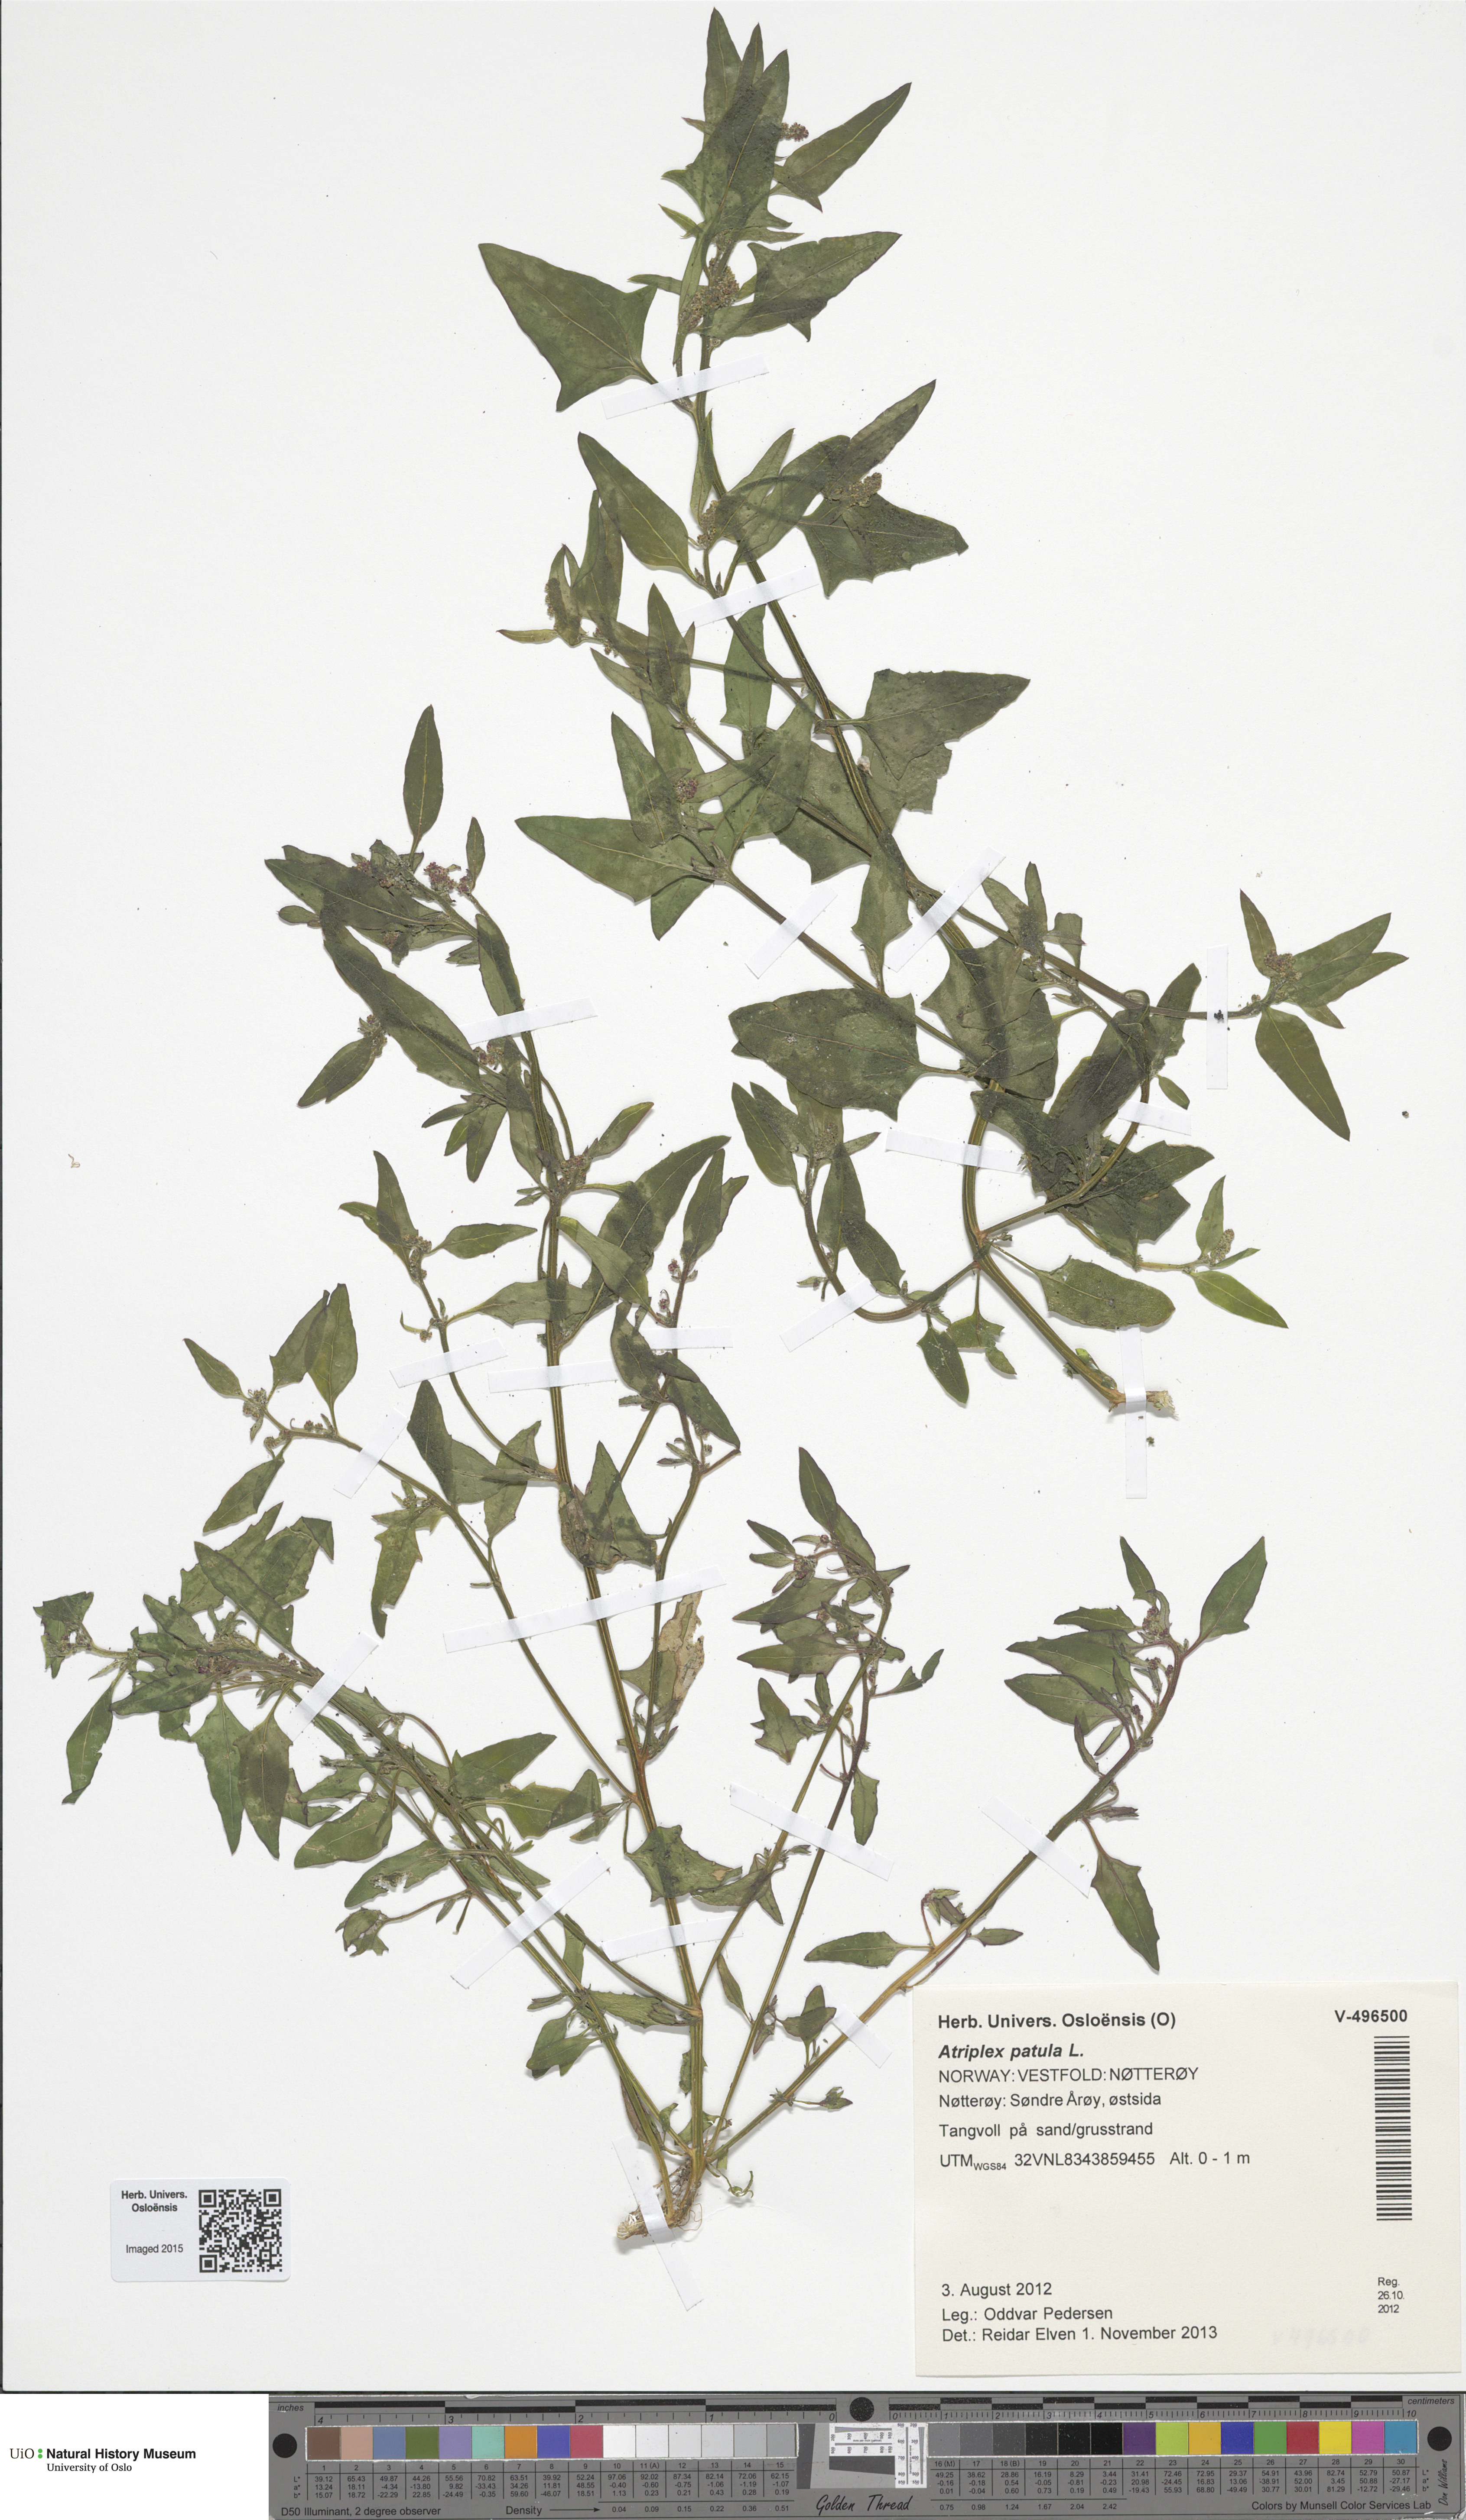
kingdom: Plantae
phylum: Tracheophyta
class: Magnoliopsida
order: Caryophyllales
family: Amaranthaceae
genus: Atriplex
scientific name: Atriplex patula
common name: Common orache
